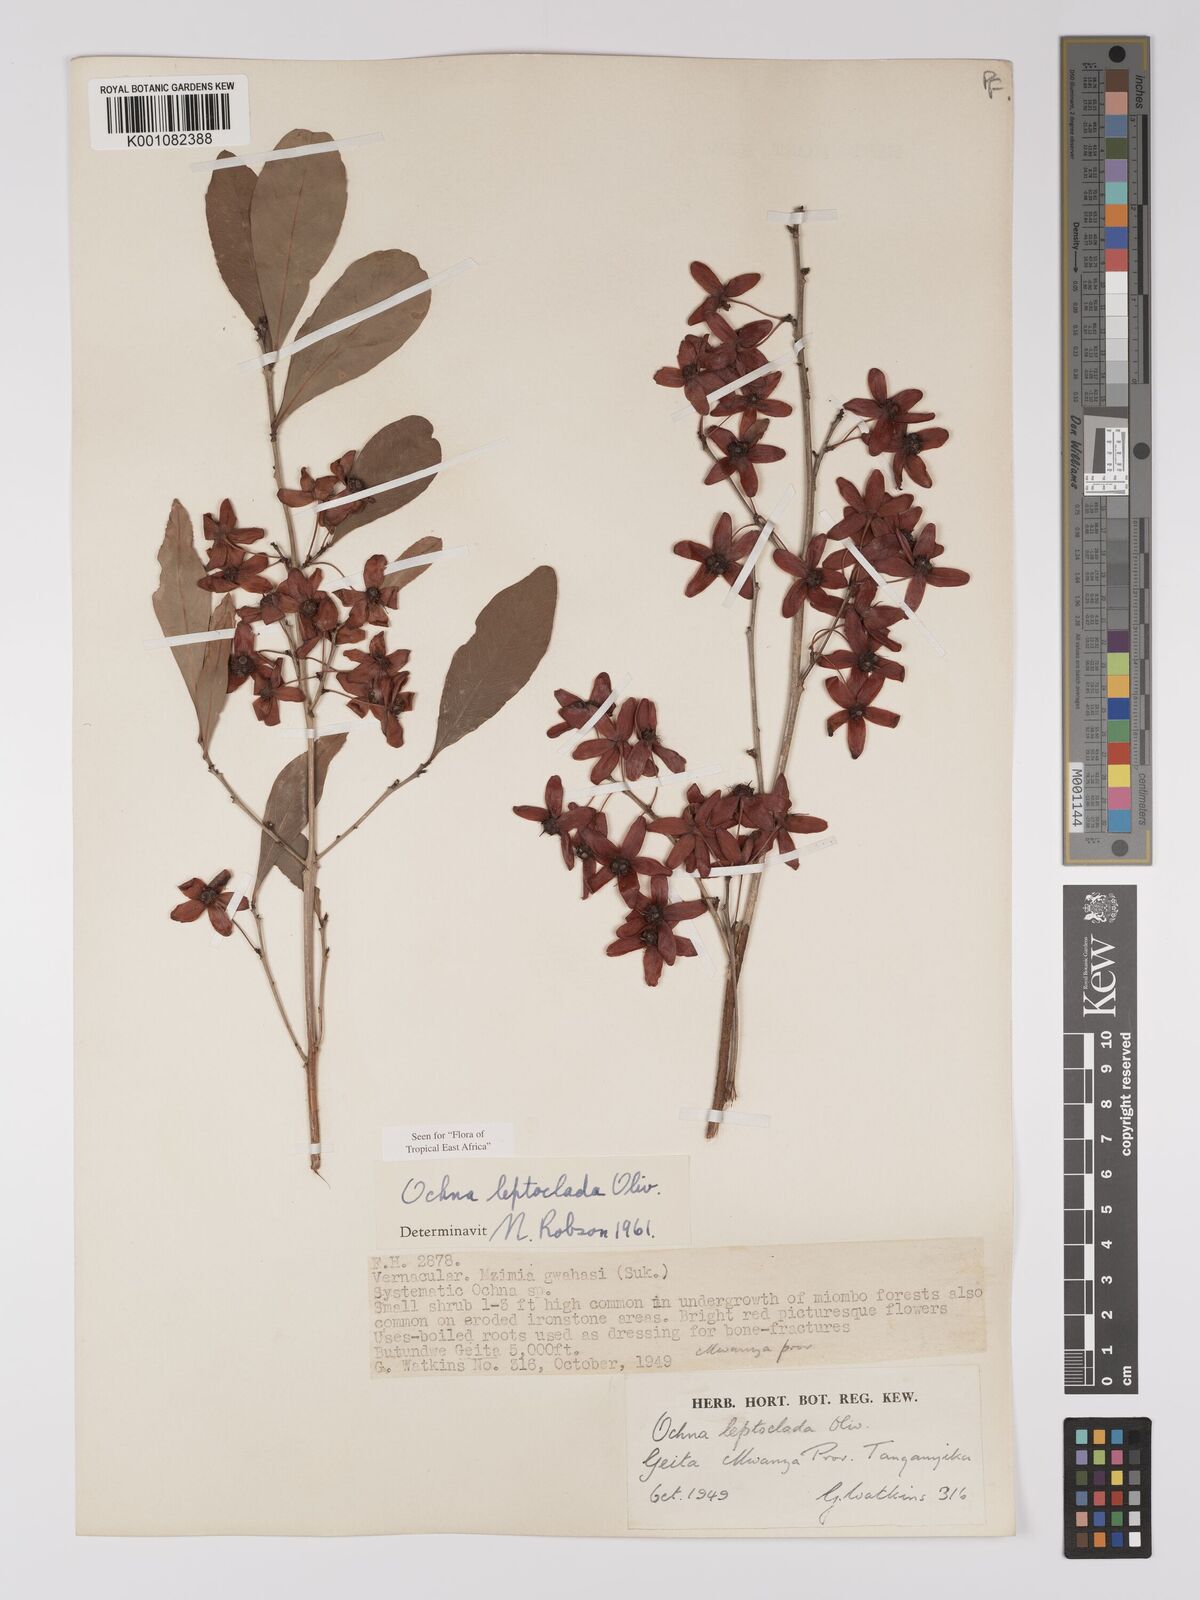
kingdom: Plantae
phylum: Tracheophyta
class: Magnoliopsida
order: Malpighiales
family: Ochnaceae
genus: Ochna
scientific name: Ochna leptoclada
